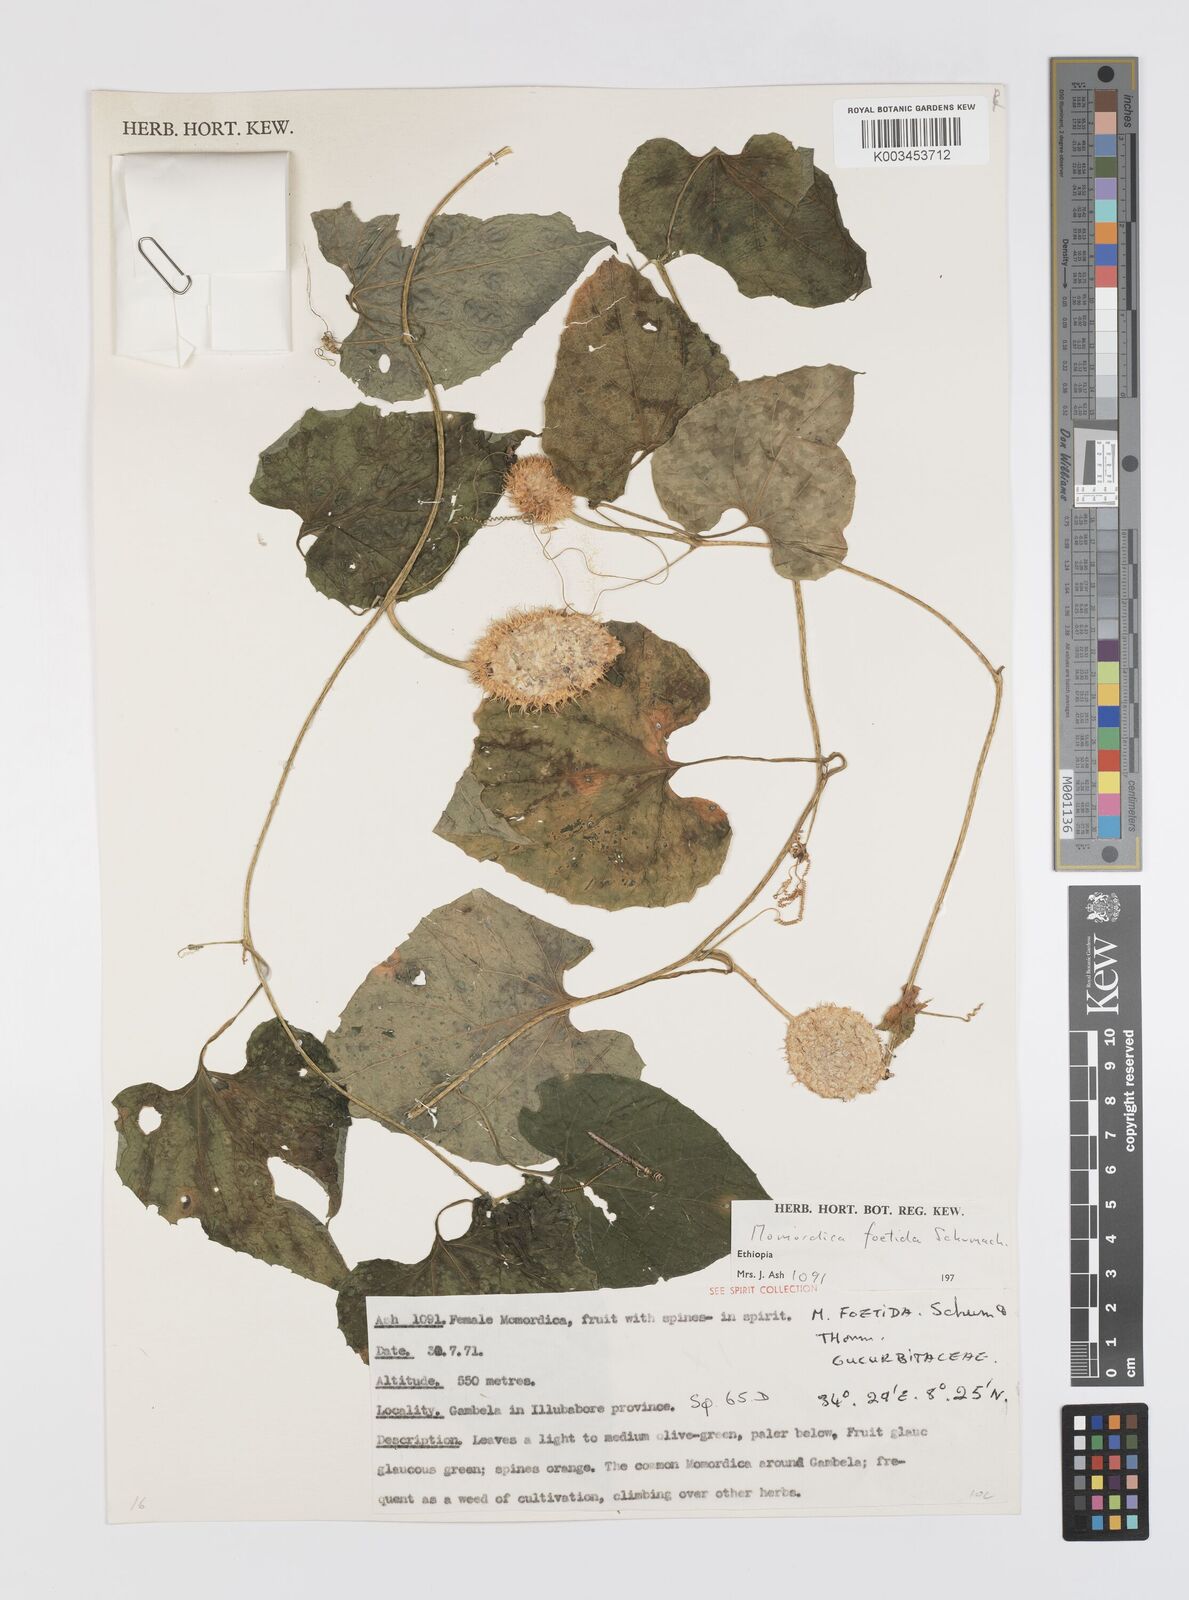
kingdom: Plantae
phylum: Tracheophyta
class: Magnoliopsida
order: Cucurbitales
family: Cucurbitaceae
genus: Momordica
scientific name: Momordica foetida
